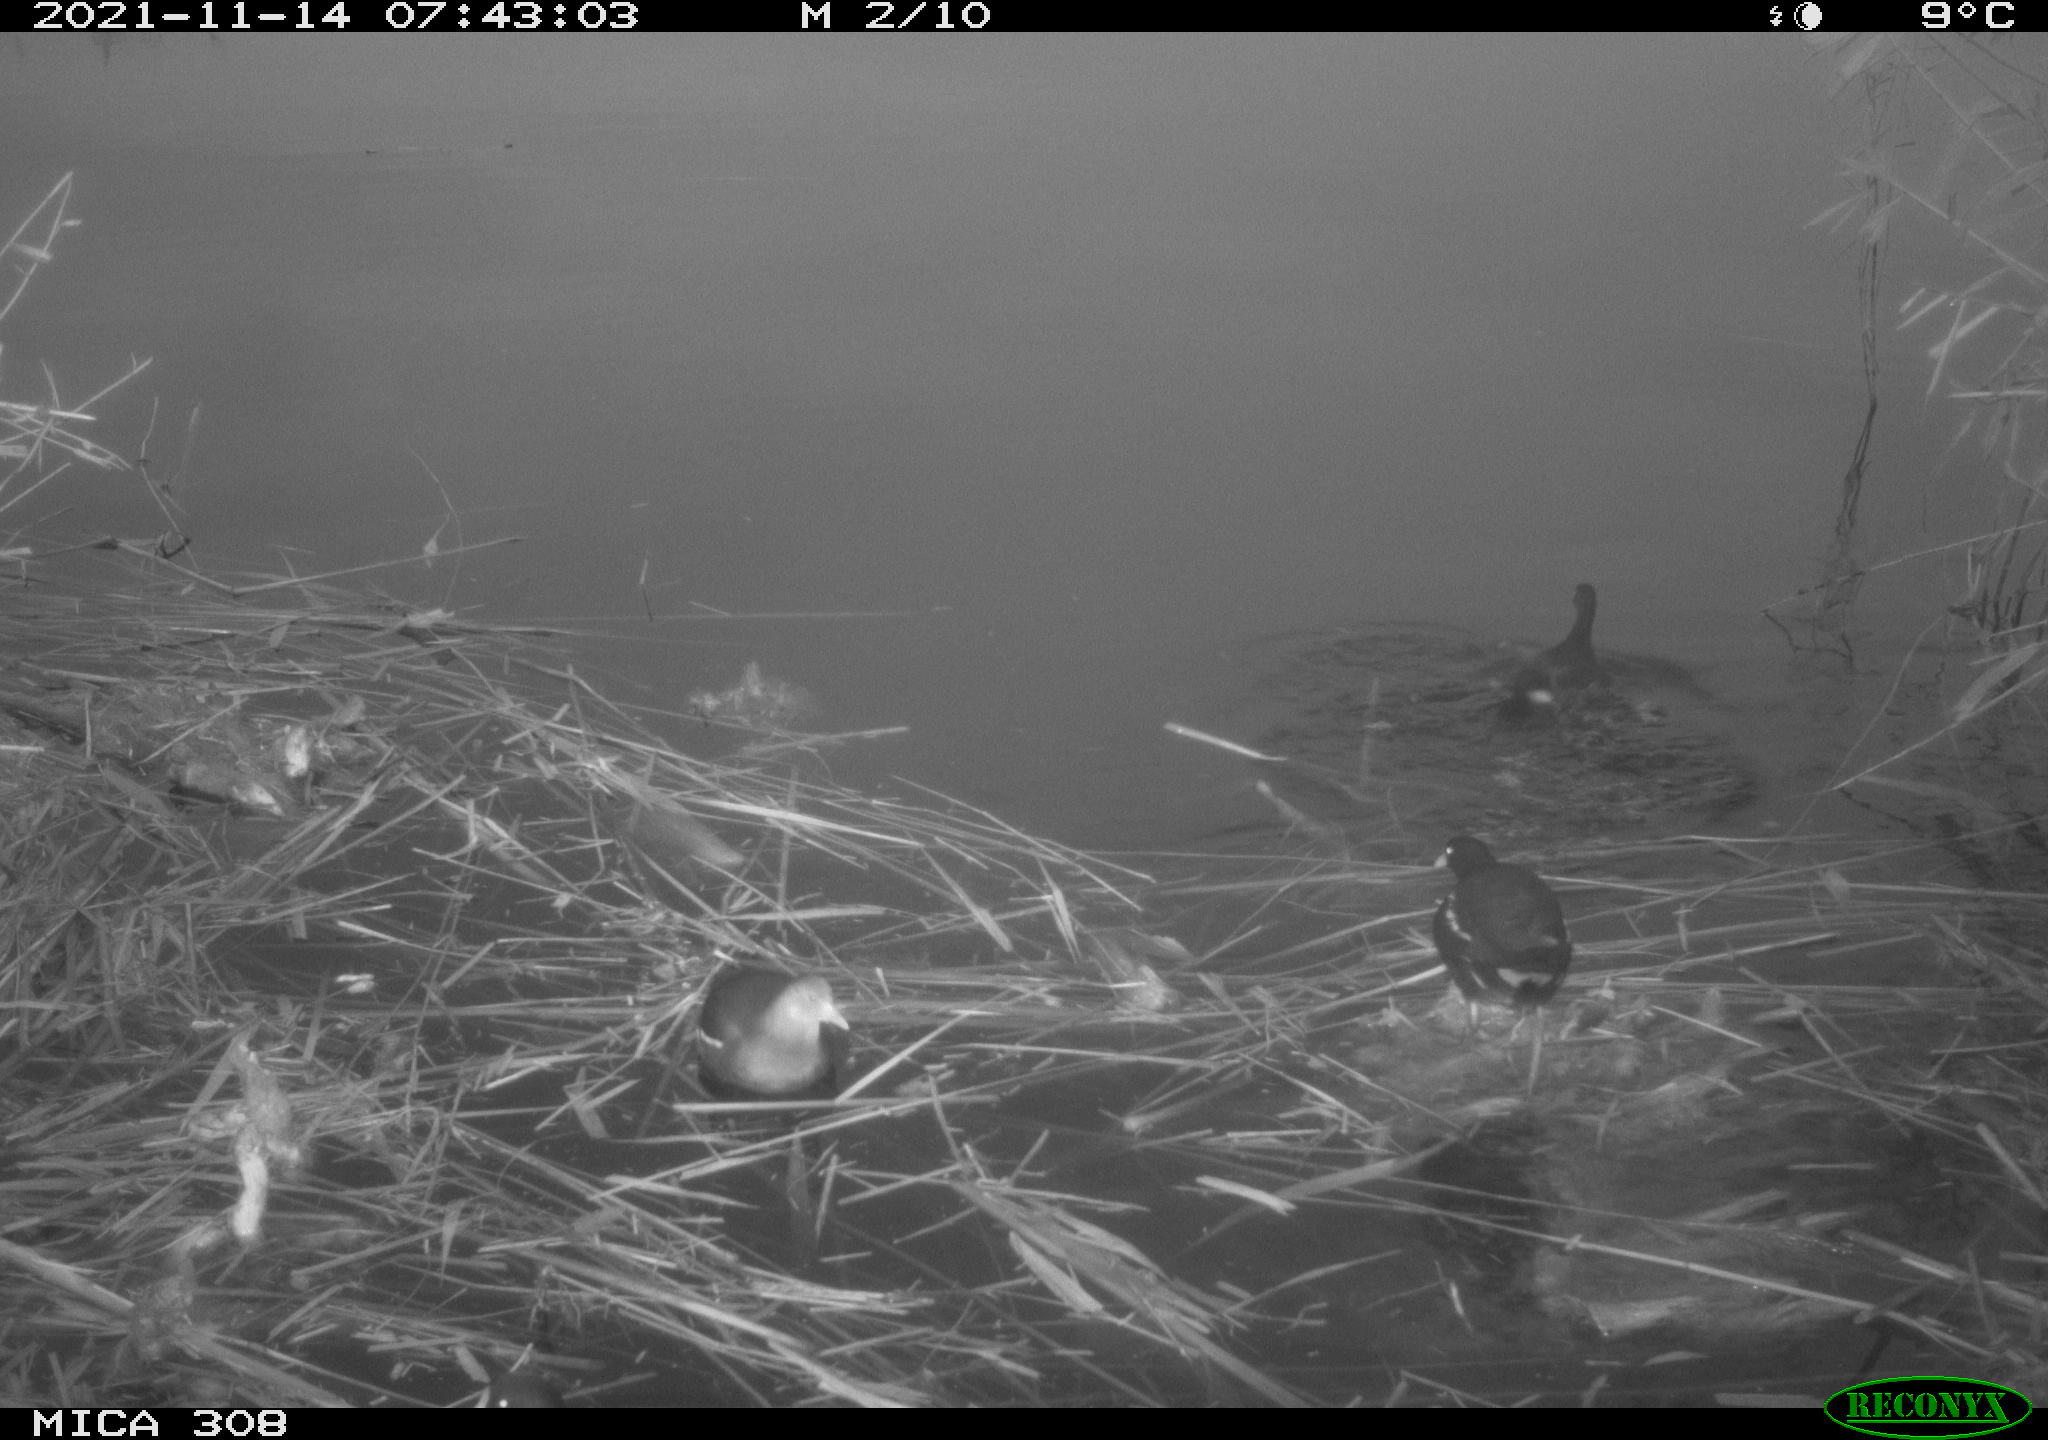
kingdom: Animalia
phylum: Chordata
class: Aves
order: Gruiformes
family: Rallidae
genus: Gallinula
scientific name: Gallinula chloropus
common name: Common moorhen
